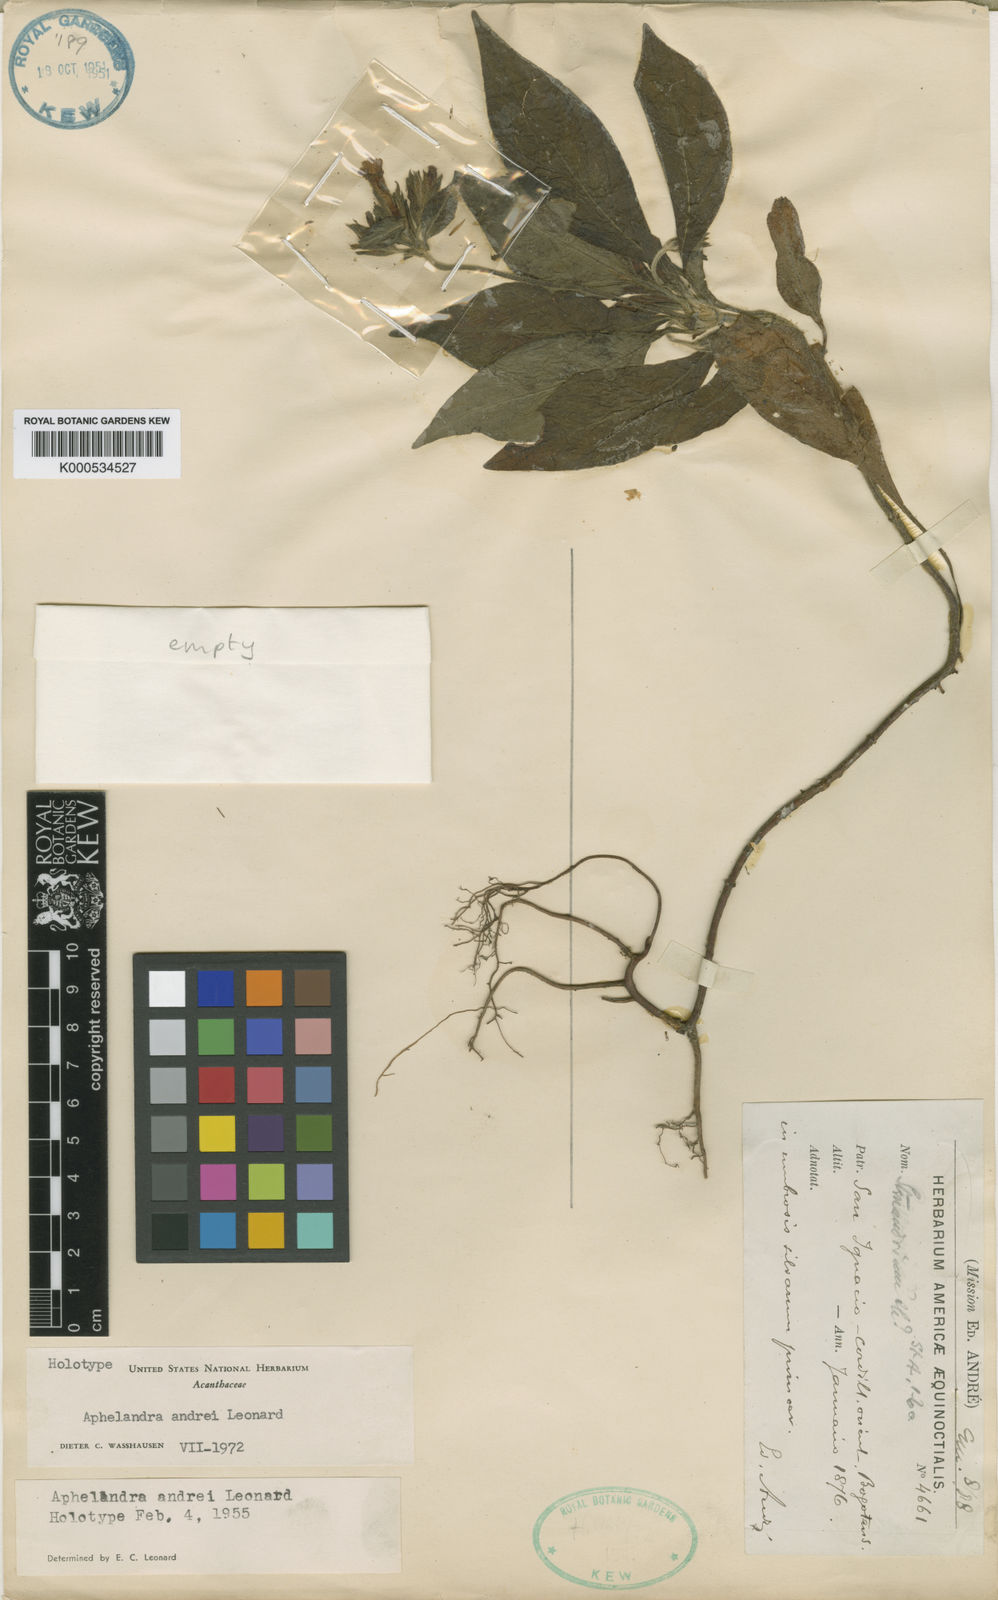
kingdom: Plantae
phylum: Tracheophyta
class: Magnoliopsida
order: Lamiales
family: Acanthaceae
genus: Stenandrium
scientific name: Stenandrium andrei
